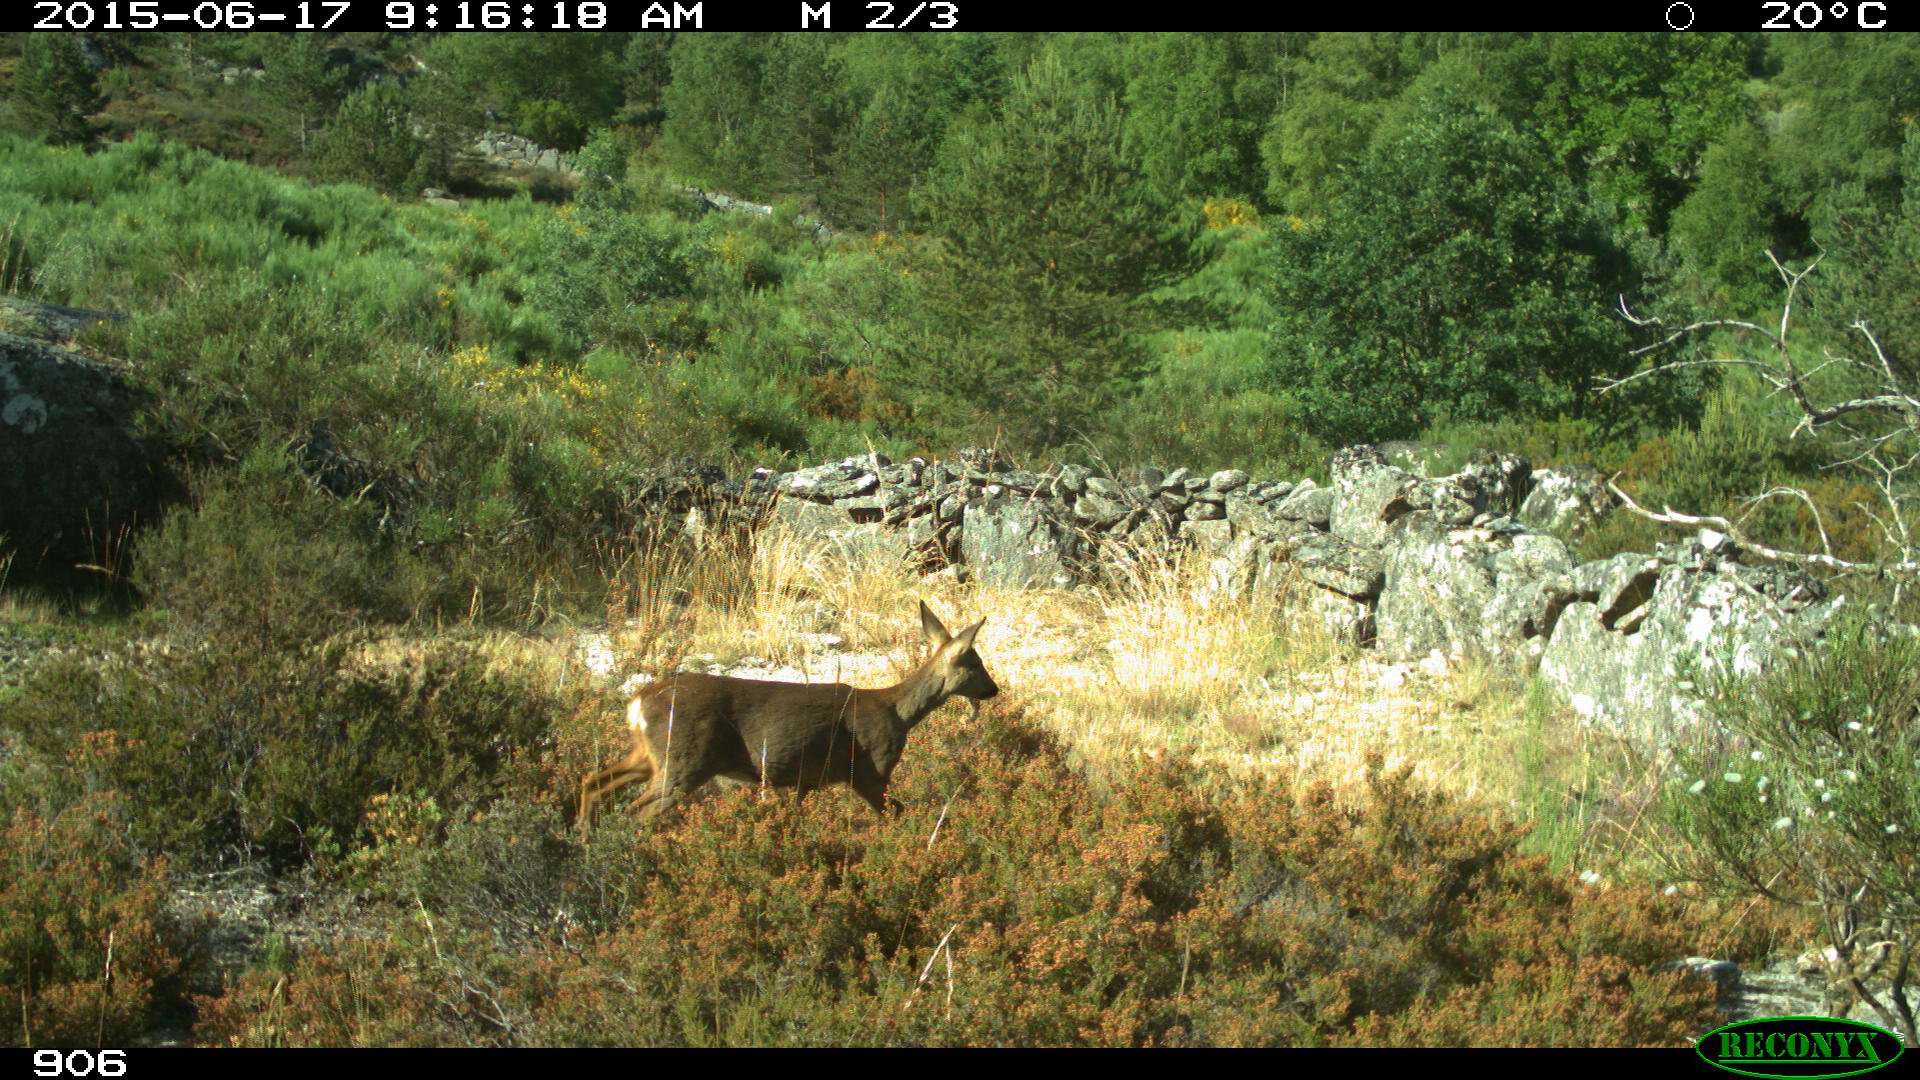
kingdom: Animalia
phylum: Chordata
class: Mammalia
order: Artiodactyla
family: Cervidae
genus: Capreolus
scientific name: Capreolus capreolus
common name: Western roe deer
